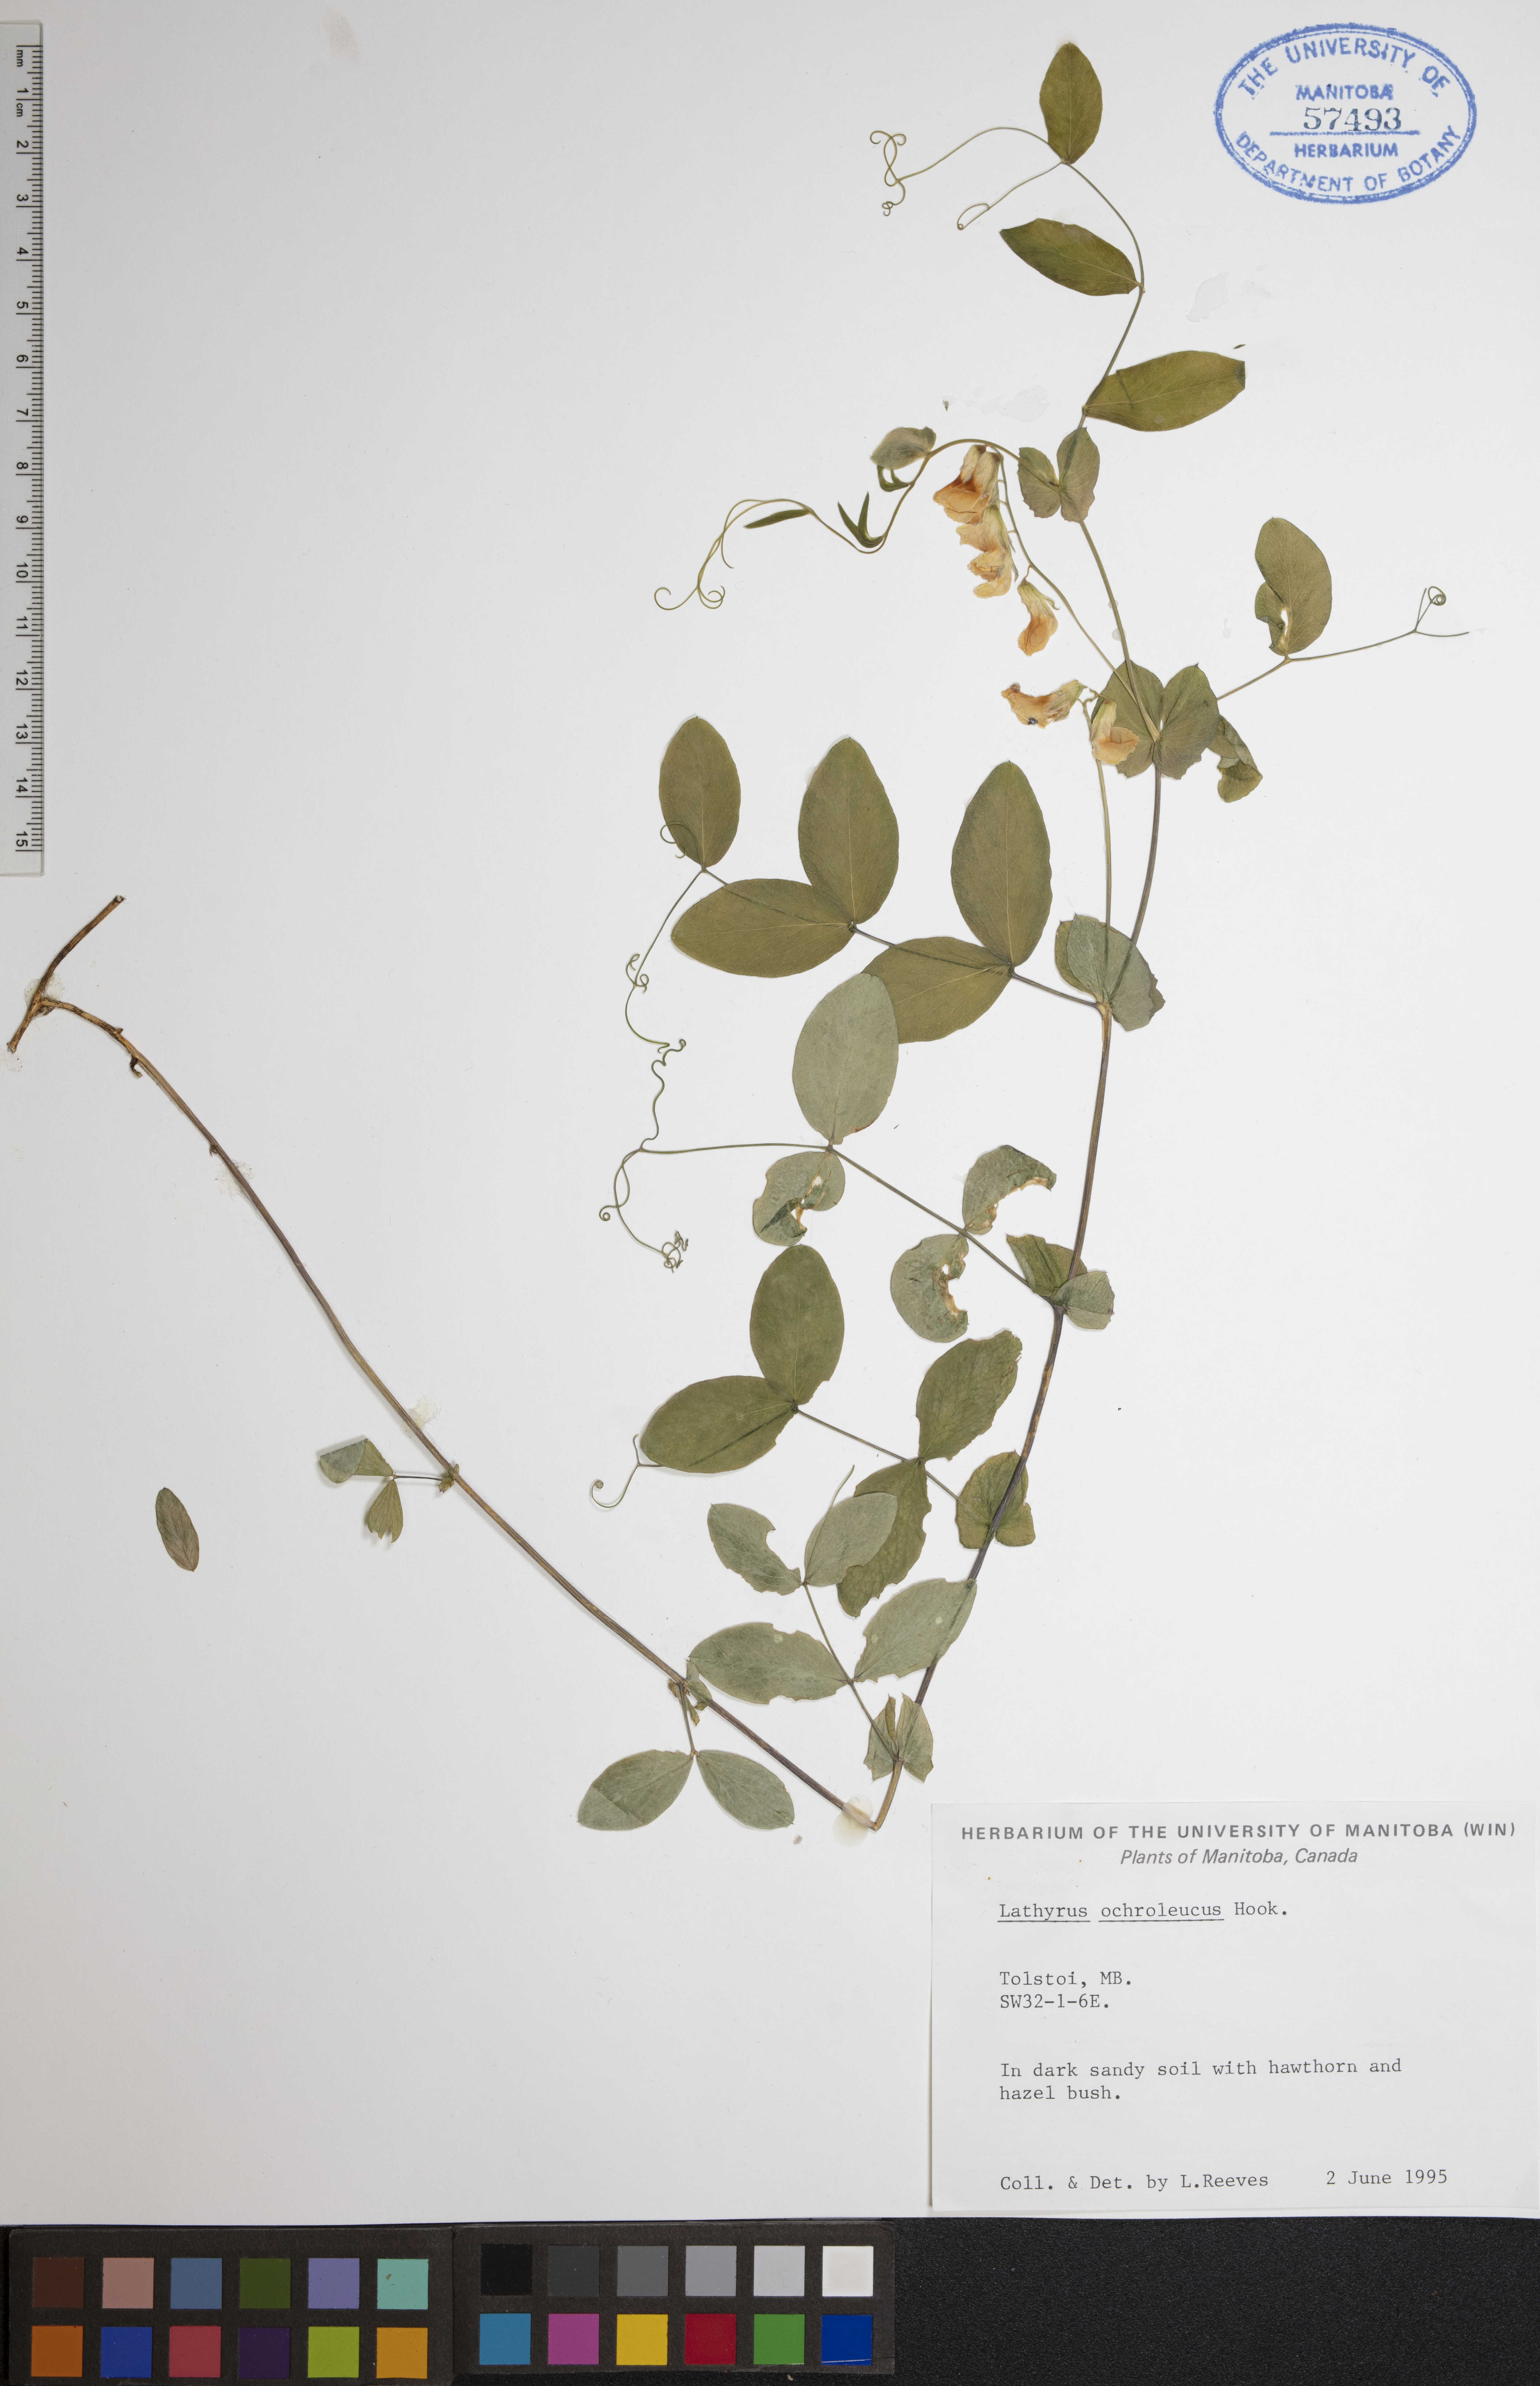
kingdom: Plantae
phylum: Tracheophyta
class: Magnoliopsida
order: Fabales
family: Fabaceae
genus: Lathyrus
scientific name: Lathyrus ochroleucus
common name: Pale vetchling
